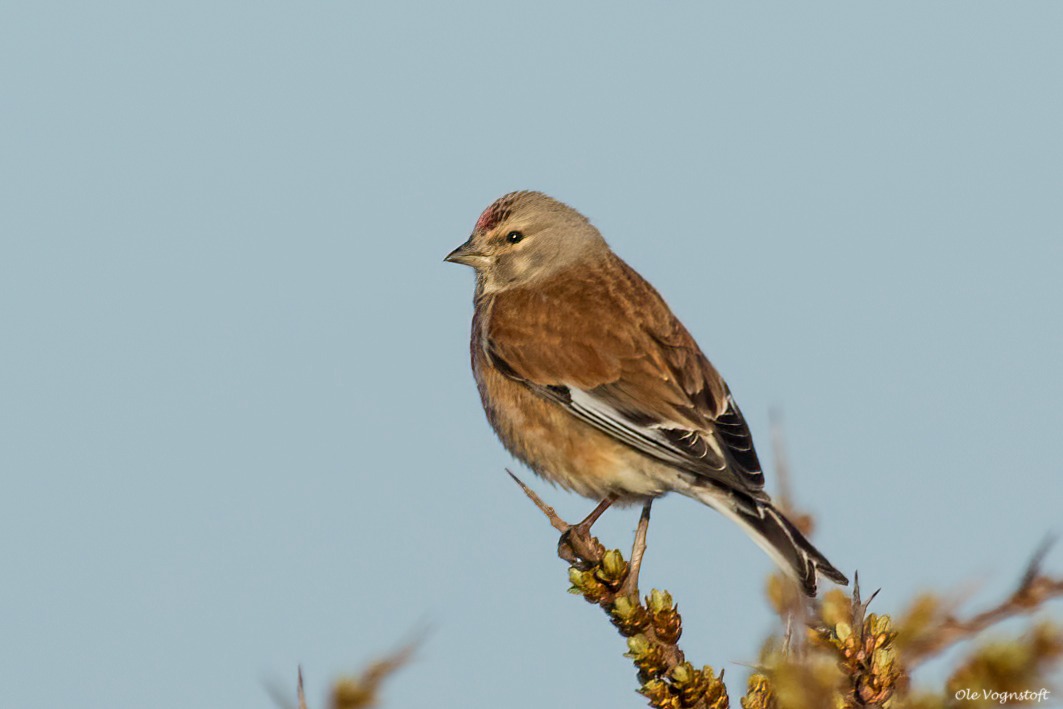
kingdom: Animalia
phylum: Chordata
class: Aves
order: Passeriformes
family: Fringillidae
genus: Linaria
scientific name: Linaria cannabina
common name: Tornirisk
